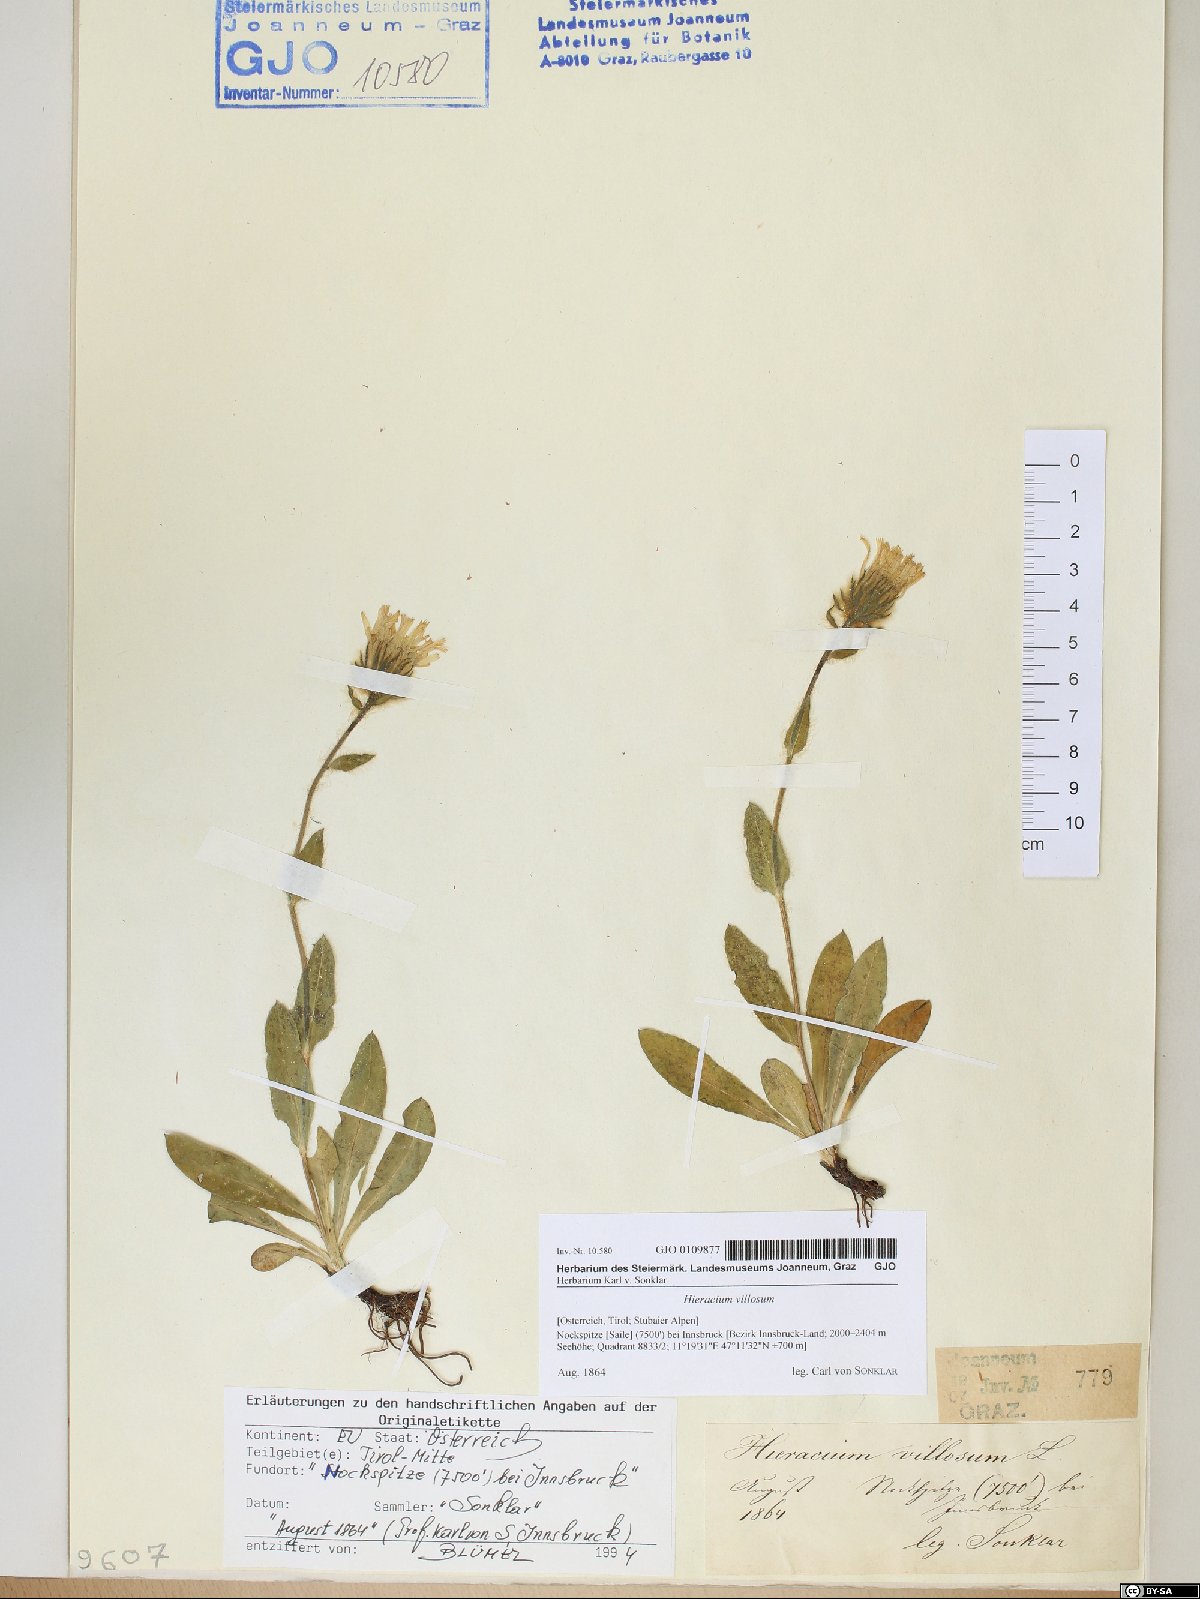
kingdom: Plantae
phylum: Tracheophyta
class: Magnoliopsida
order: Asterales
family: Asteraceae
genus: Hieracium
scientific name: Hieracium villosum
